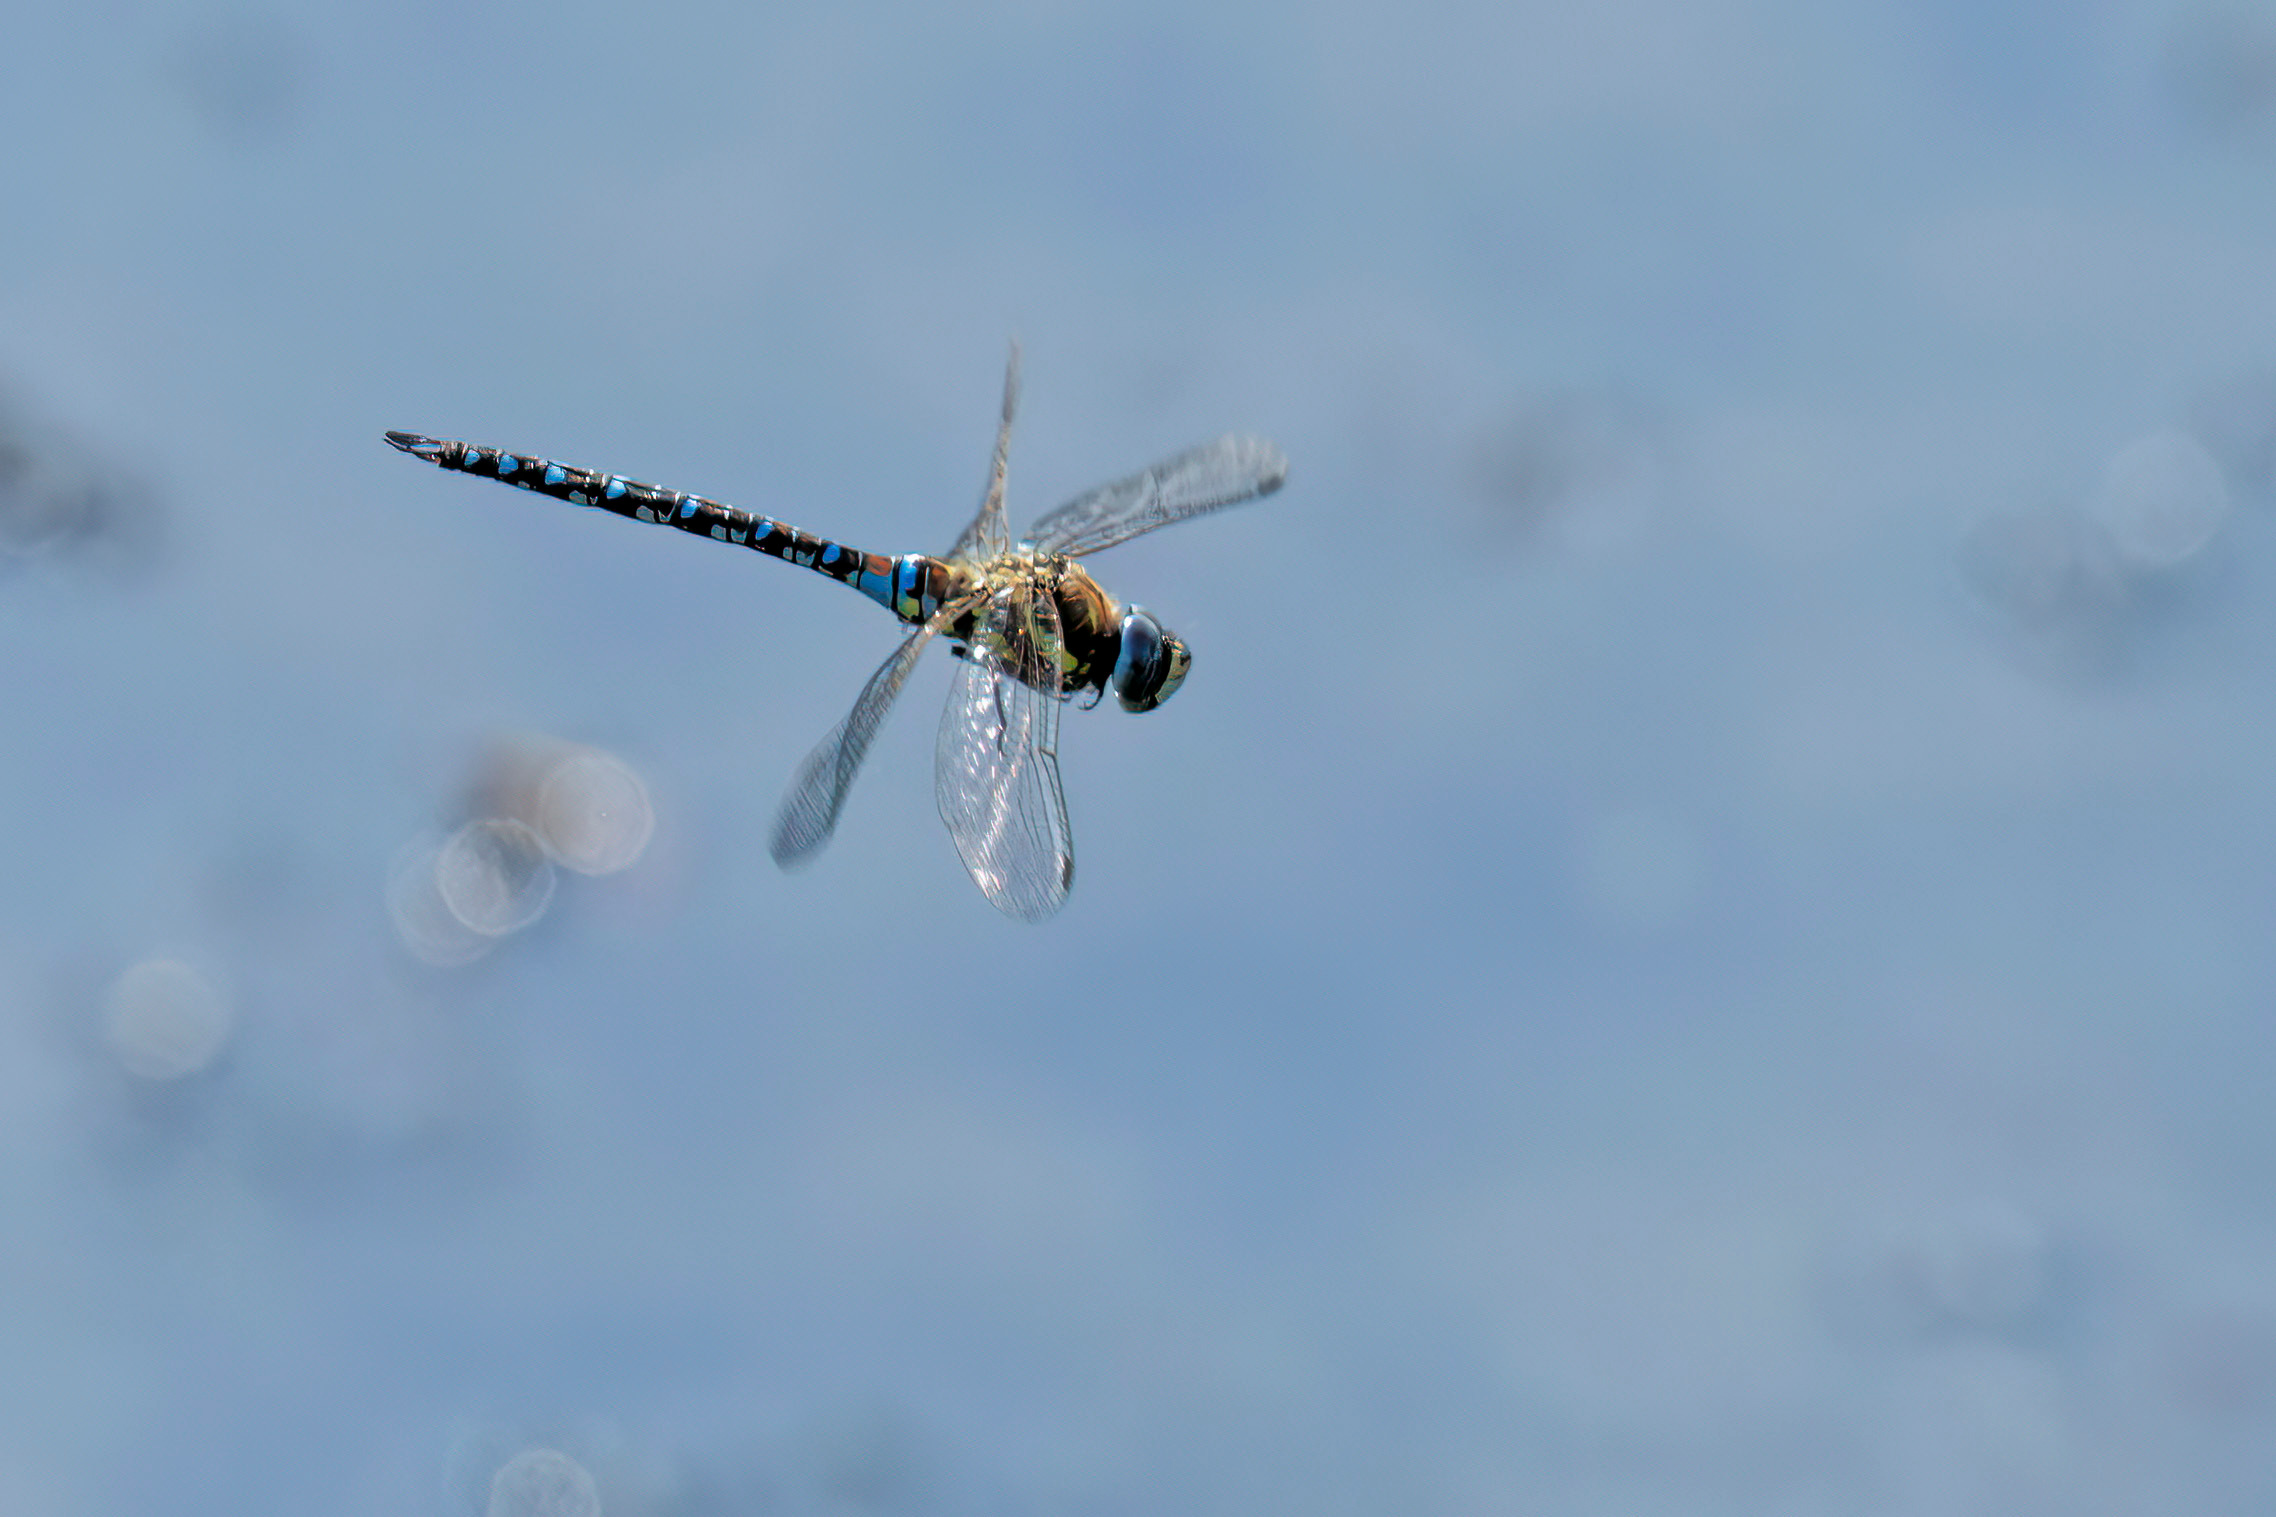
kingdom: Animalia
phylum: Arthropoda
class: Insecta
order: Odonata
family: Aeshnidae
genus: Aeshna
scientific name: Aeshna mixta
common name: Efterårs-mosaikguldsmed
